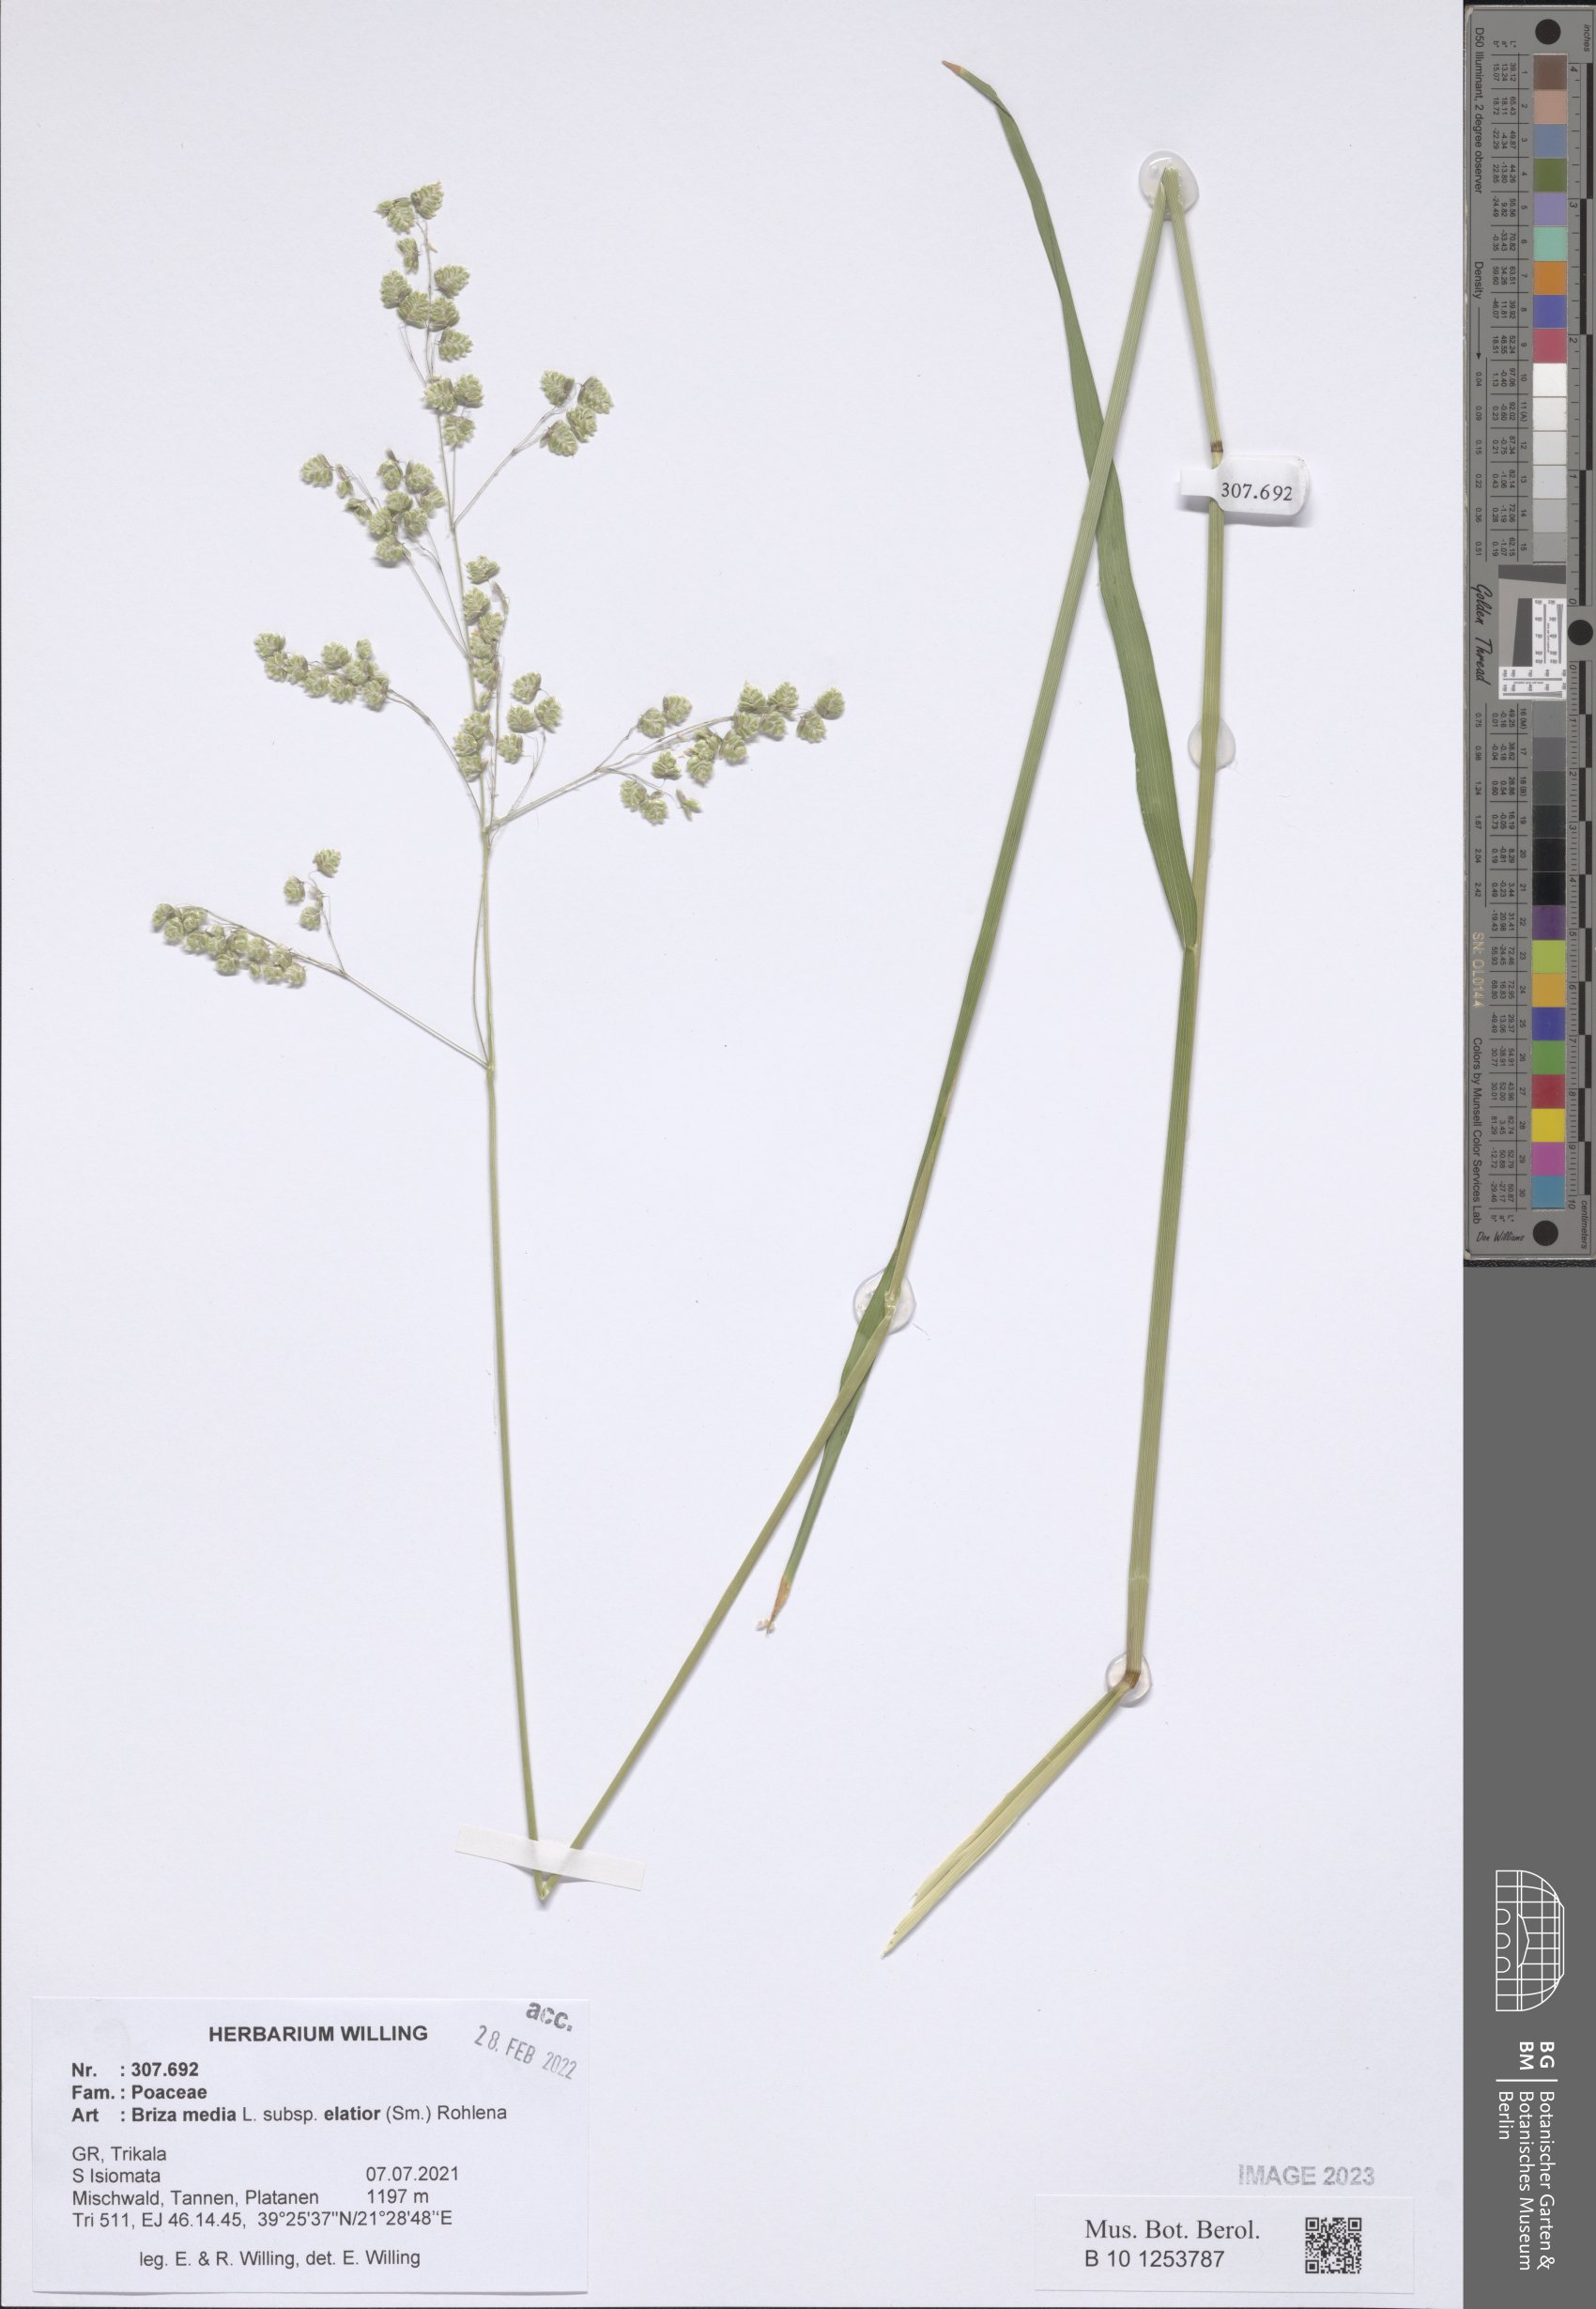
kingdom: Plantae
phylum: Tracheophyta
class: Liliopsida
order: Poales
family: Poaceae
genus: Briza
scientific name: Briza media
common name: Quaking grass
